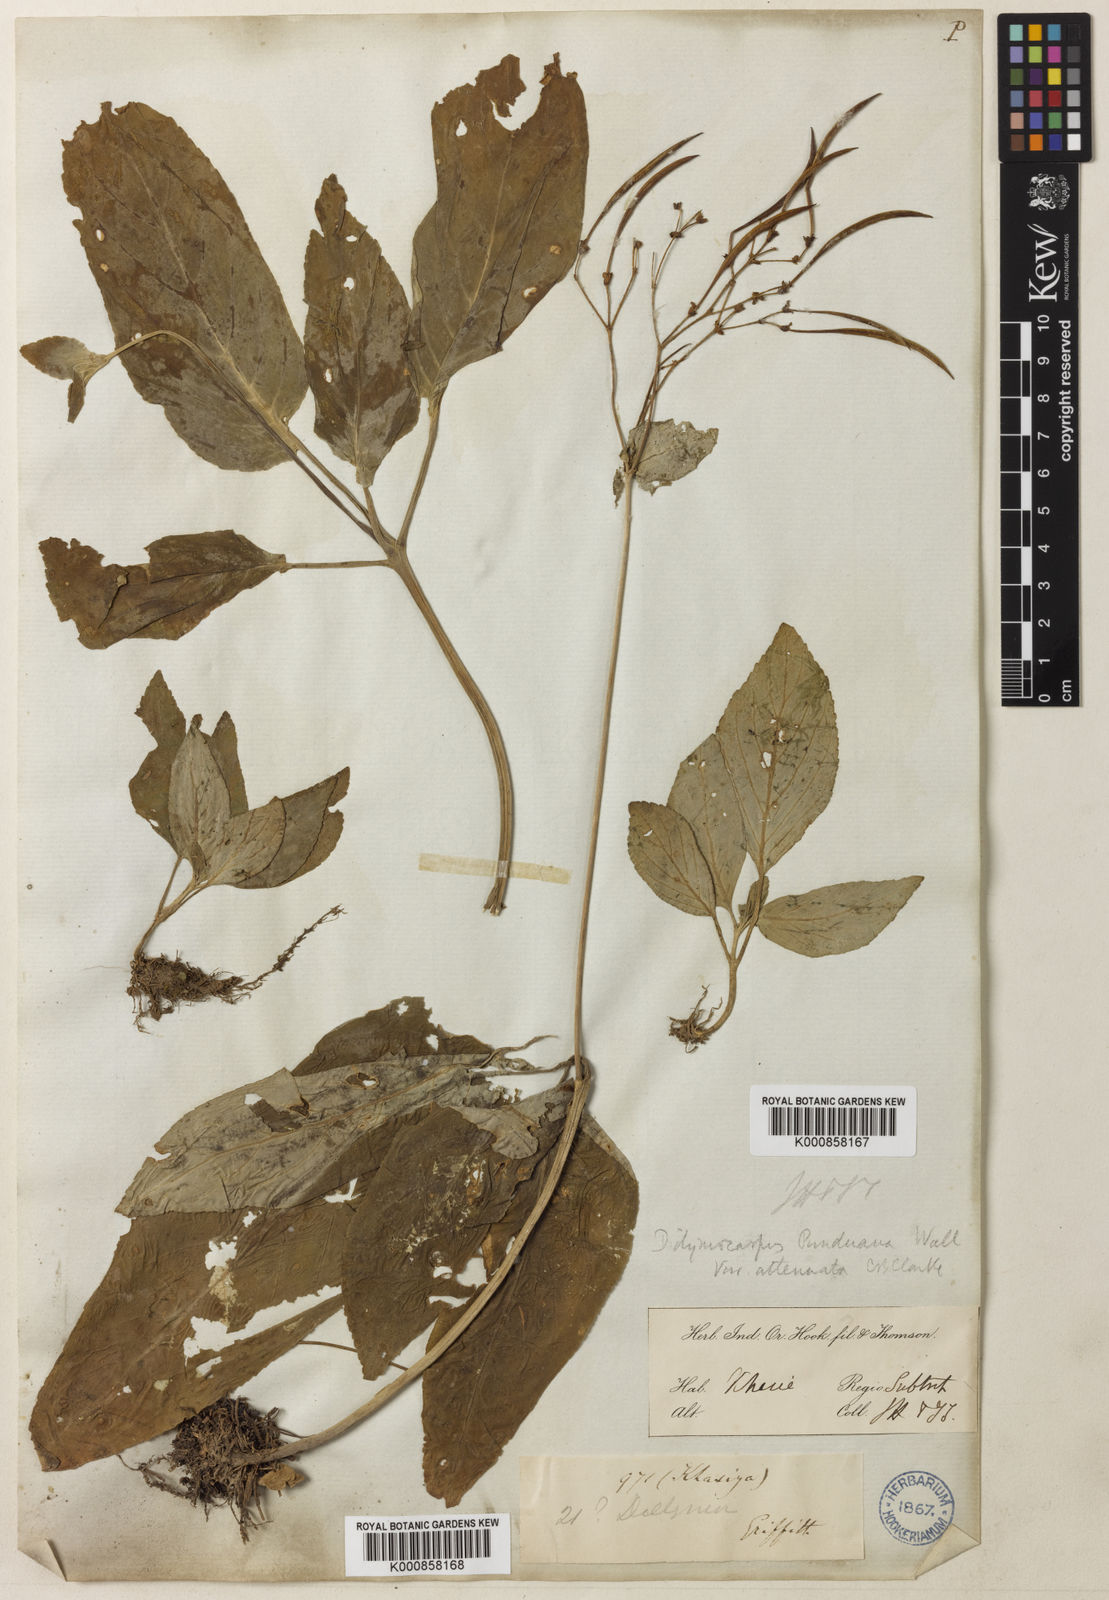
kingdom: Plantae
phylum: Tracheophyta
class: Magnoliopsida
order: Lamiales
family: Gesneriaceae
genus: Henckelia
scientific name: Henckelia
